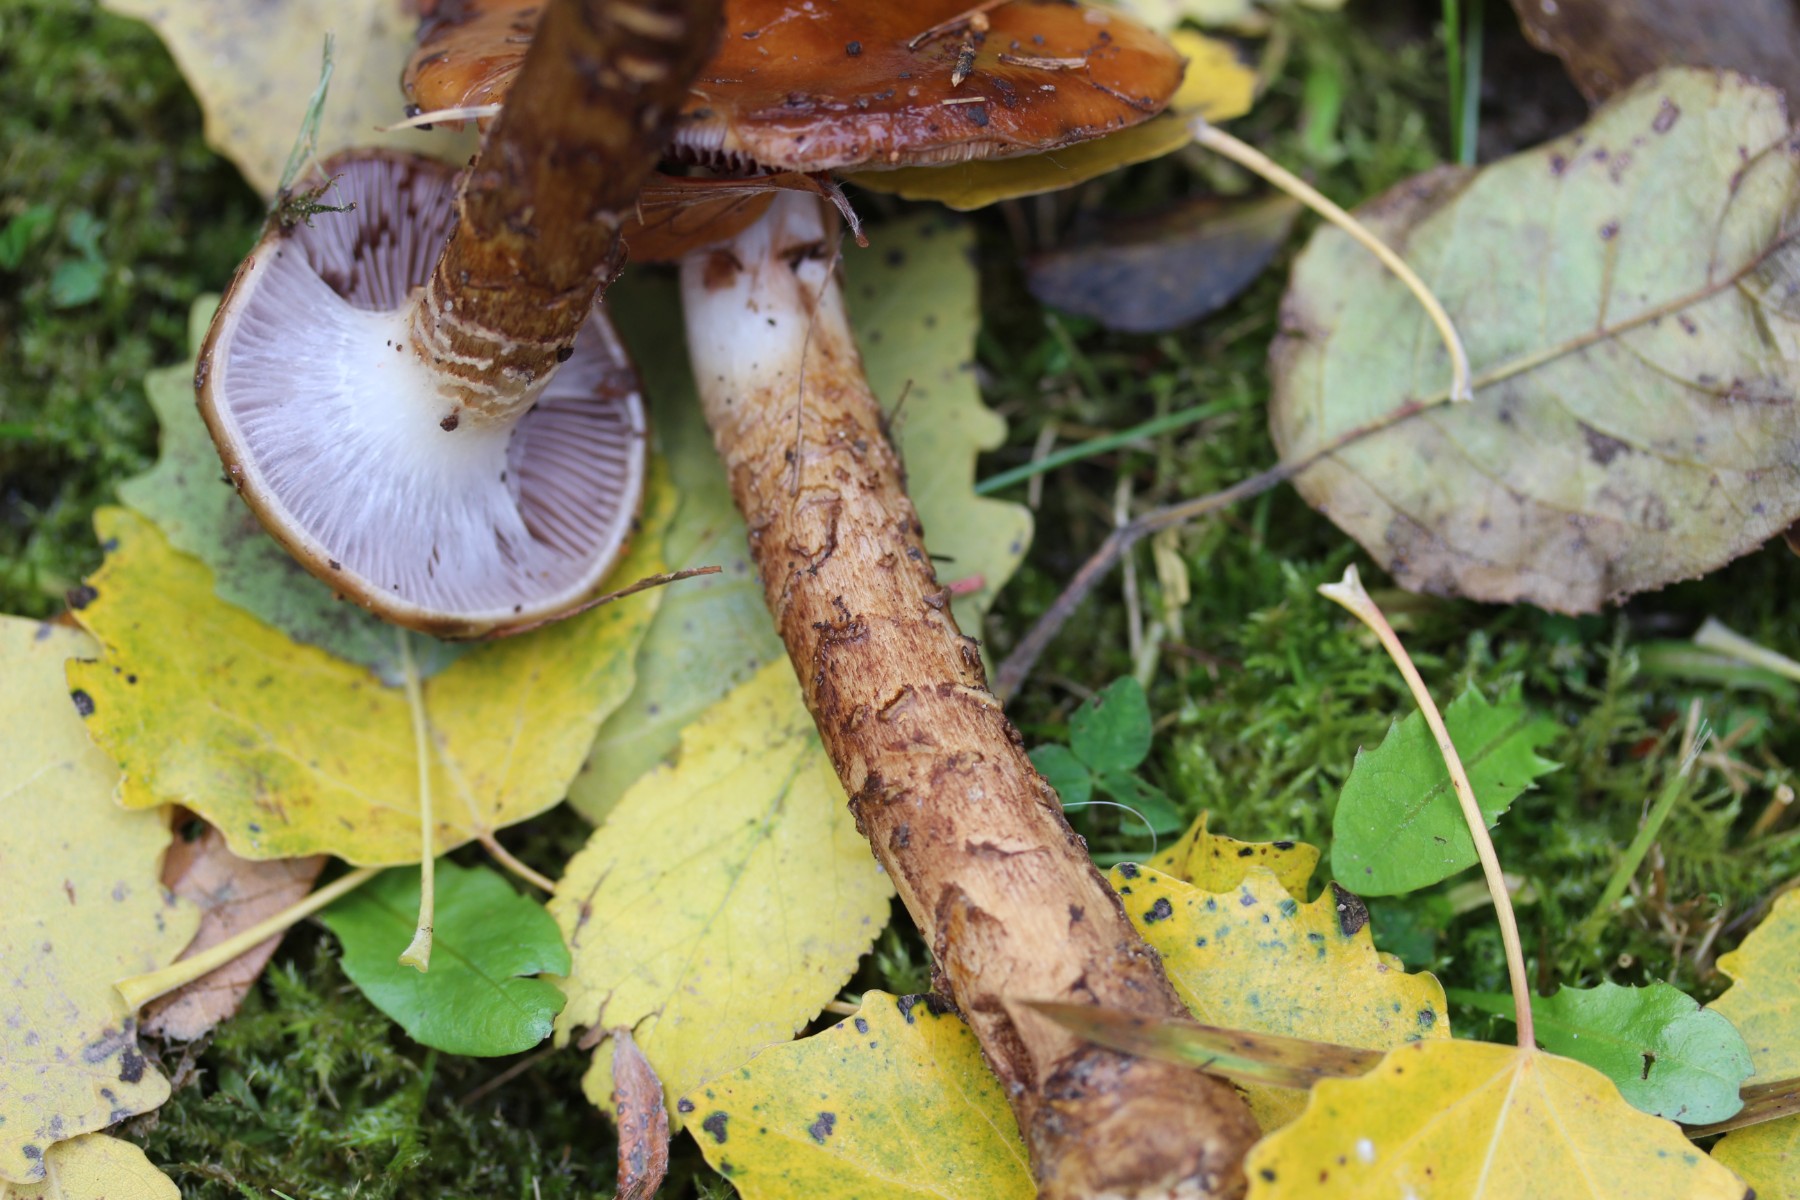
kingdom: Fungi
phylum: Basidiomycota
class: Agaricomycetes
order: Agaricales
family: Cortinariaceae
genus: Cortinarius
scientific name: Cortinarius trivialis
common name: brunslimet slørhat
